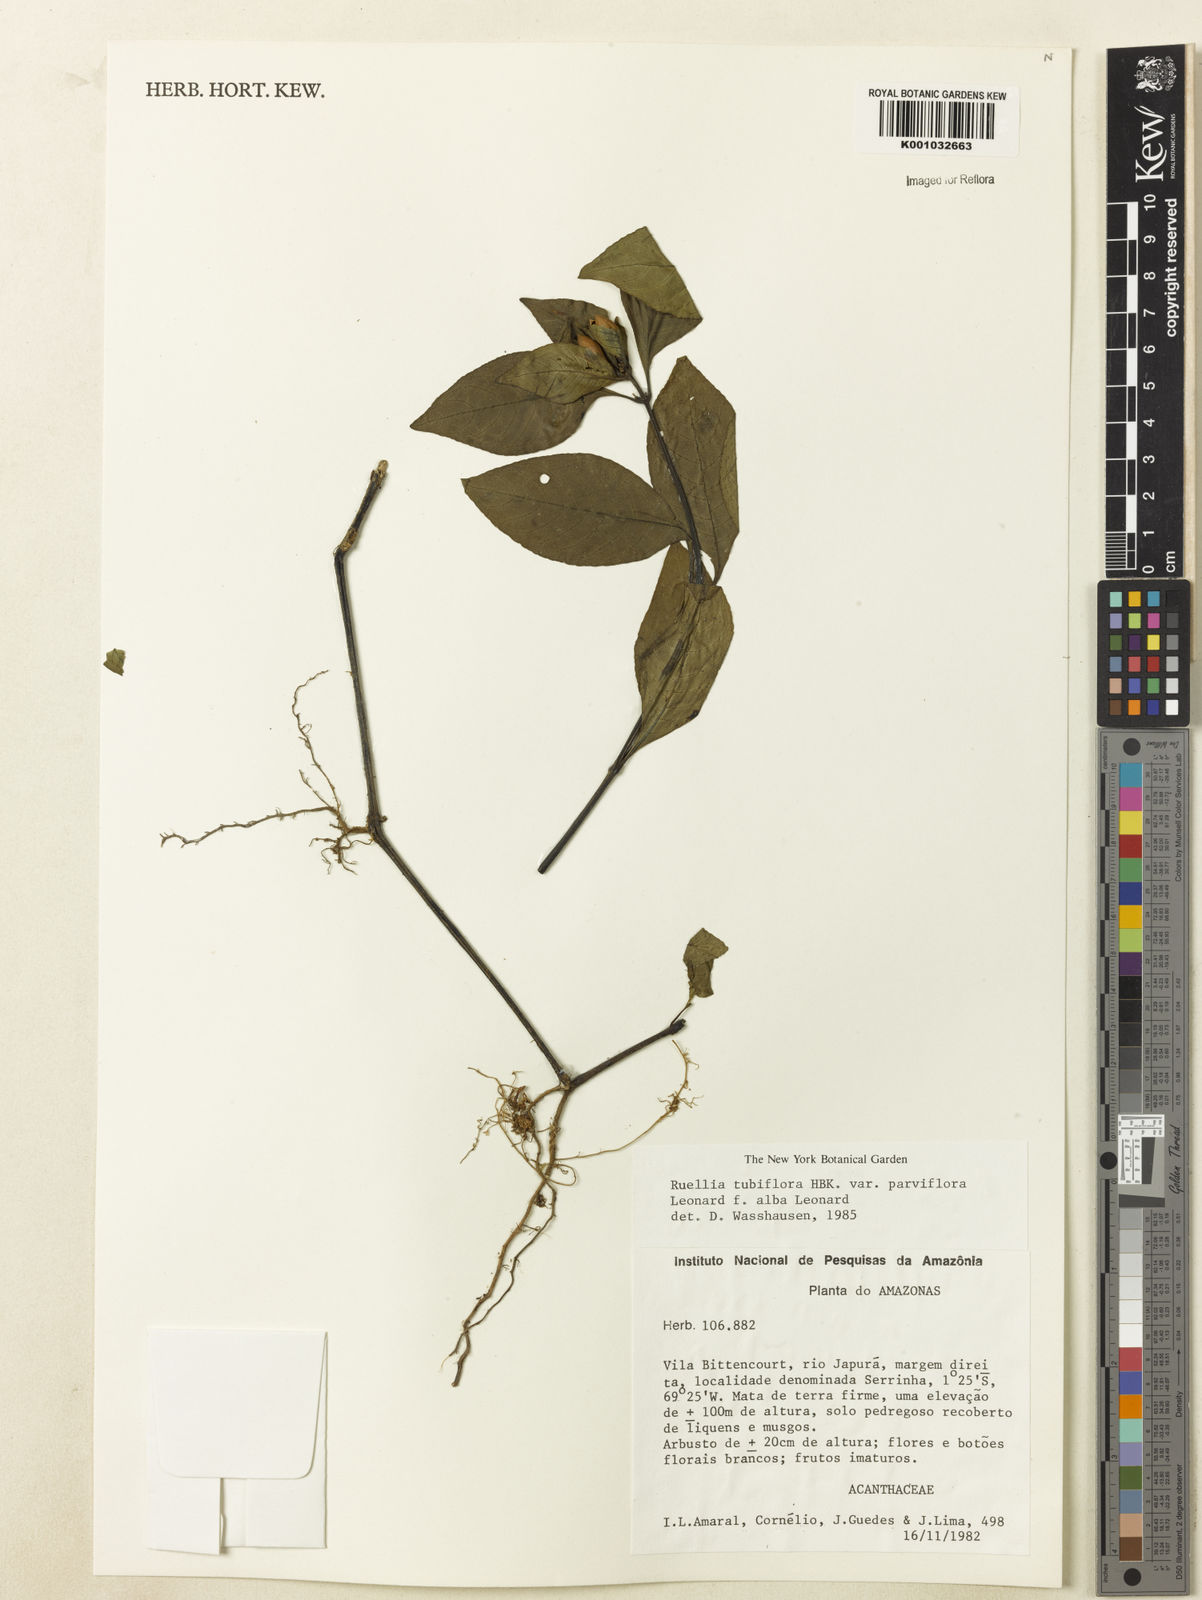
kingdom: Plantae
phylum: Tracheophyta
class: Magnoliopsida
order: Lamiales
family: Acanthaceae
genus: Ruellia
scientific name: Ruellia tubiflora
